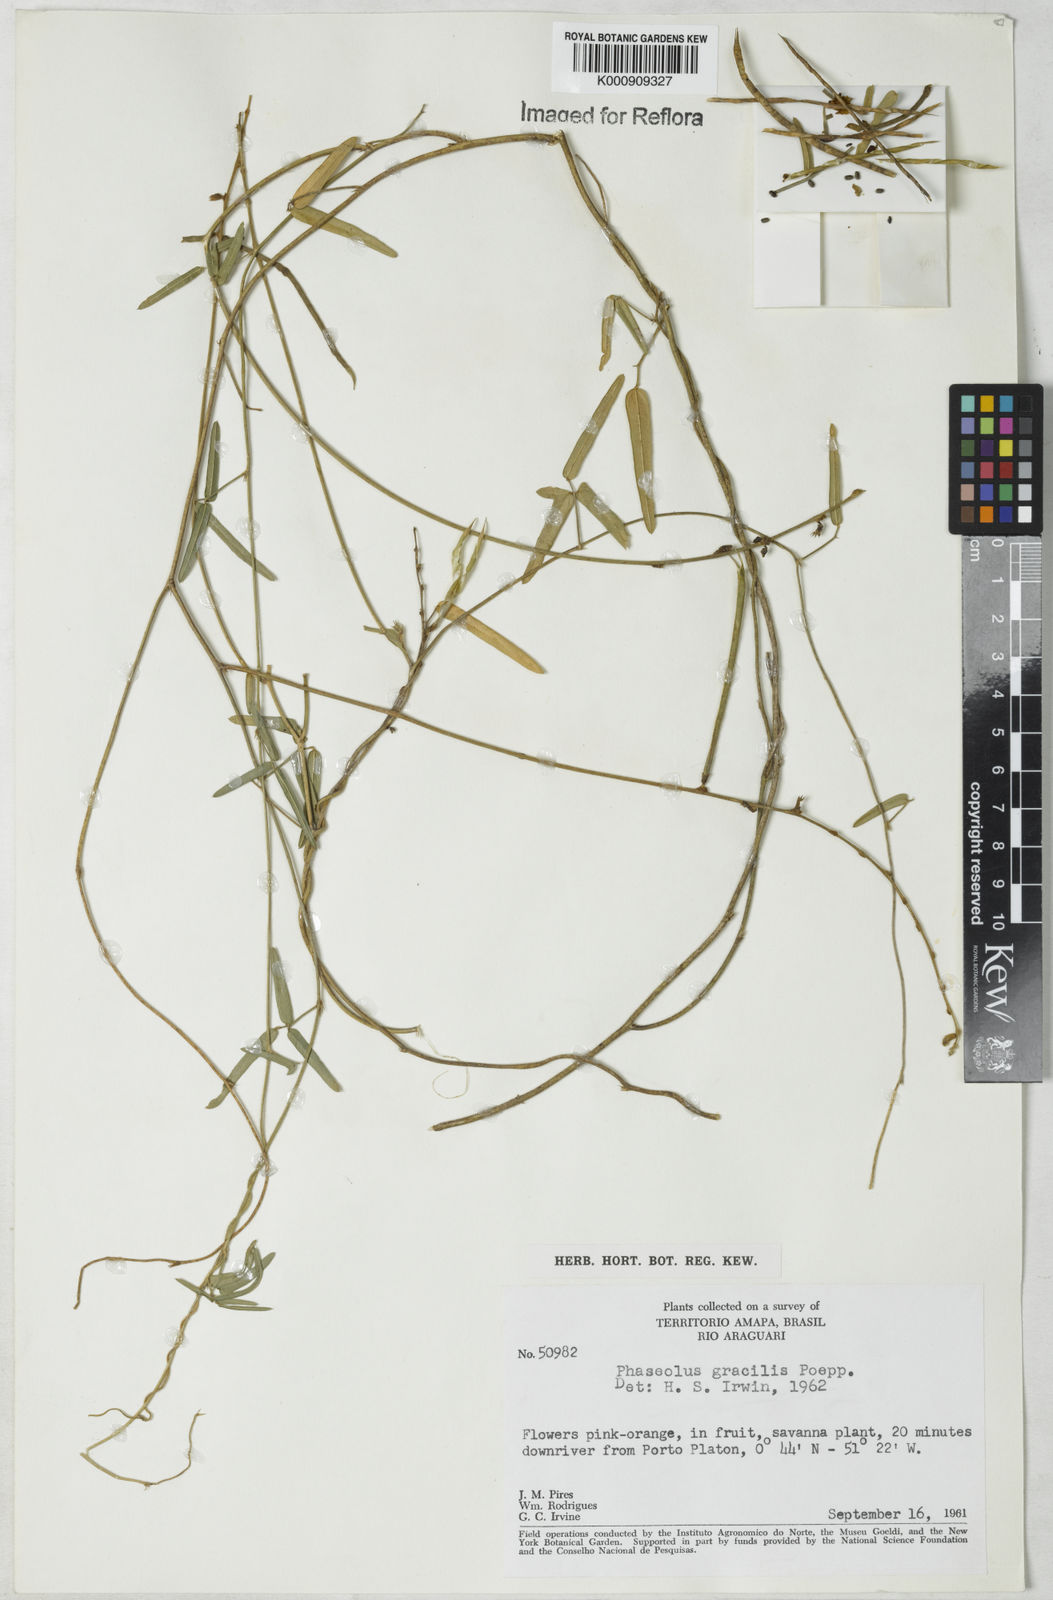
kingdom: Plantae
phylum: Tracheophyta
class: Magnoliopsida
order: Fabales
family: Fabaceae
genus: Macroptilium
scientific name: Macroptilium gracile
